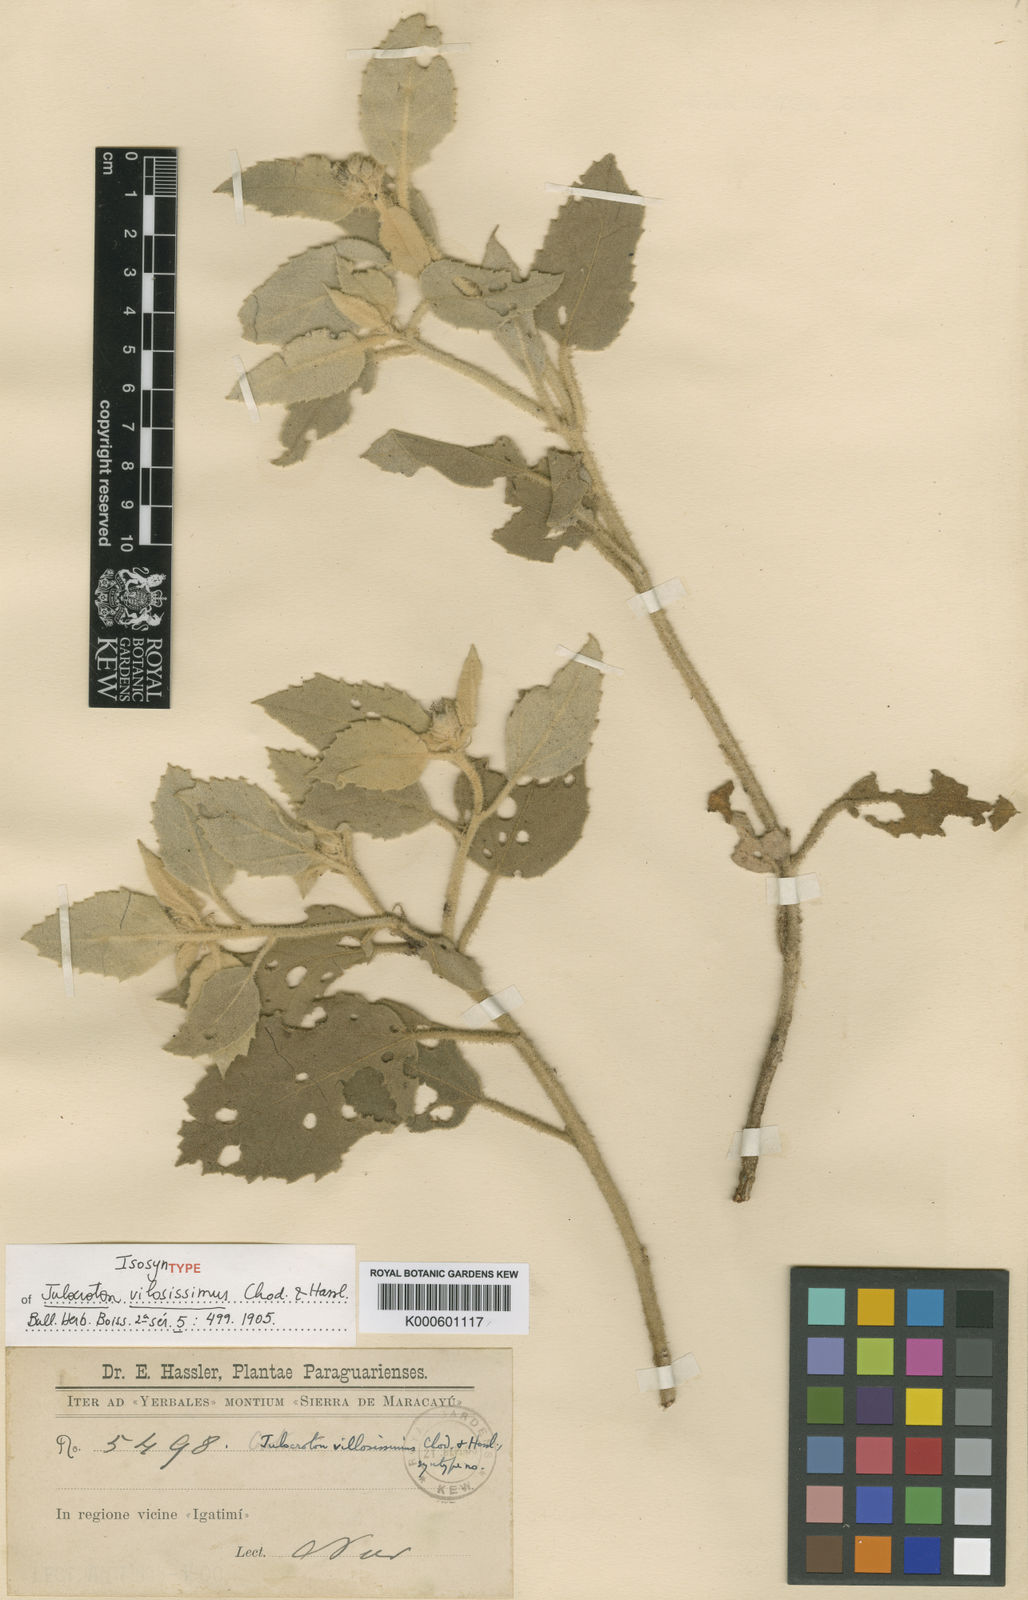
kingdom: Plantae
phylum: Tracheophyta
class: Magnoliopsida
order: Malpighiales
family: Euphorbiaceae
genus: Croton
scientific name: Croton villosissimus
